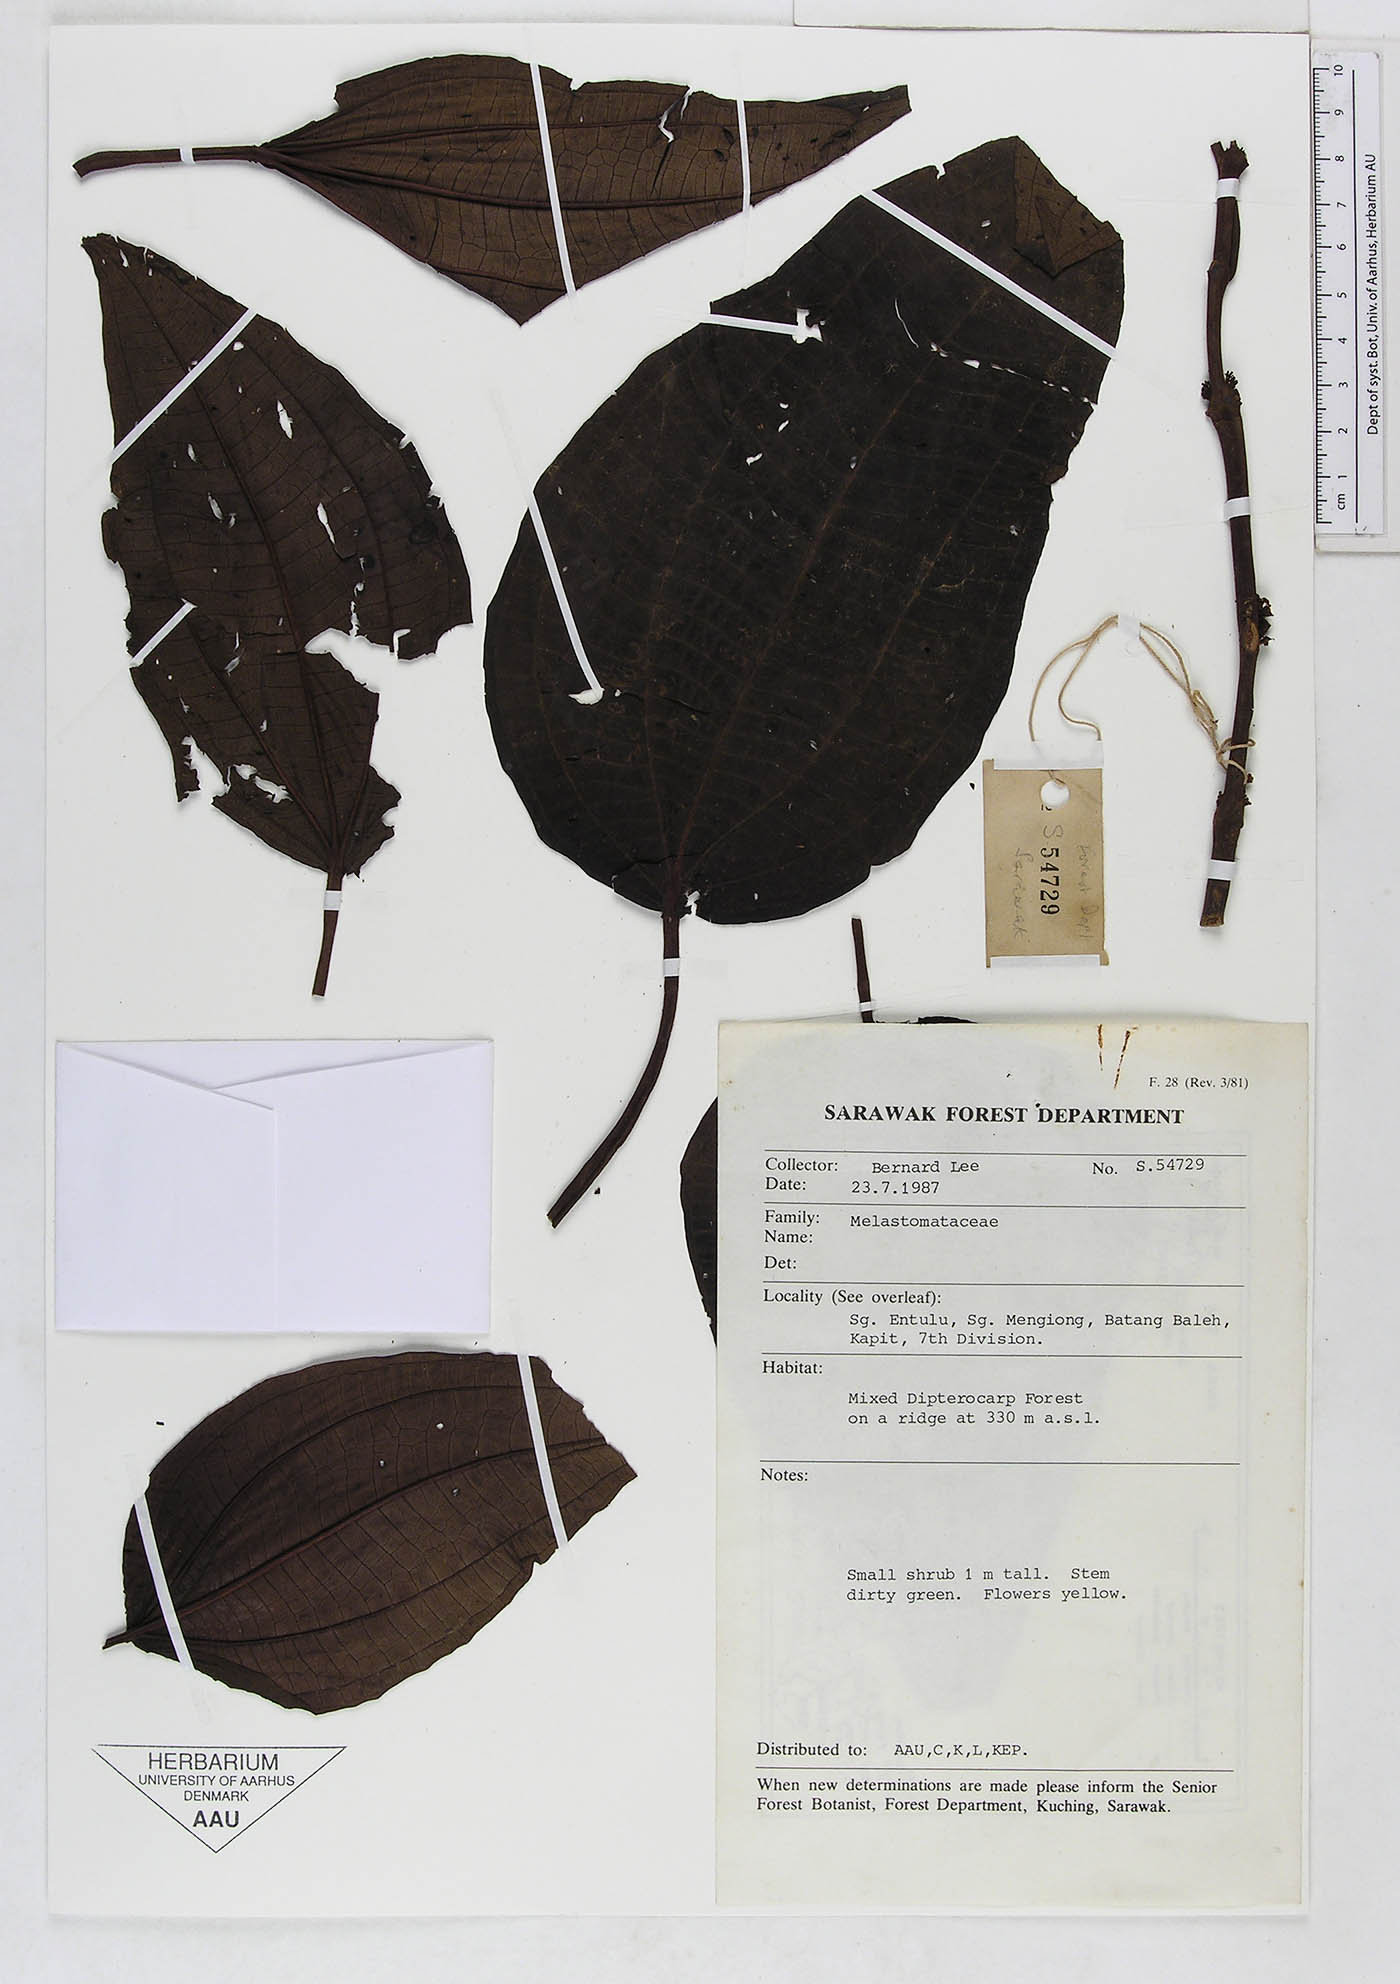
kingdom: Plantae
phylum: Tracheophyta
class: Magnoliopsida
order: Myrtales
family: Melastomataceae
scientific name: Melastomataceae
